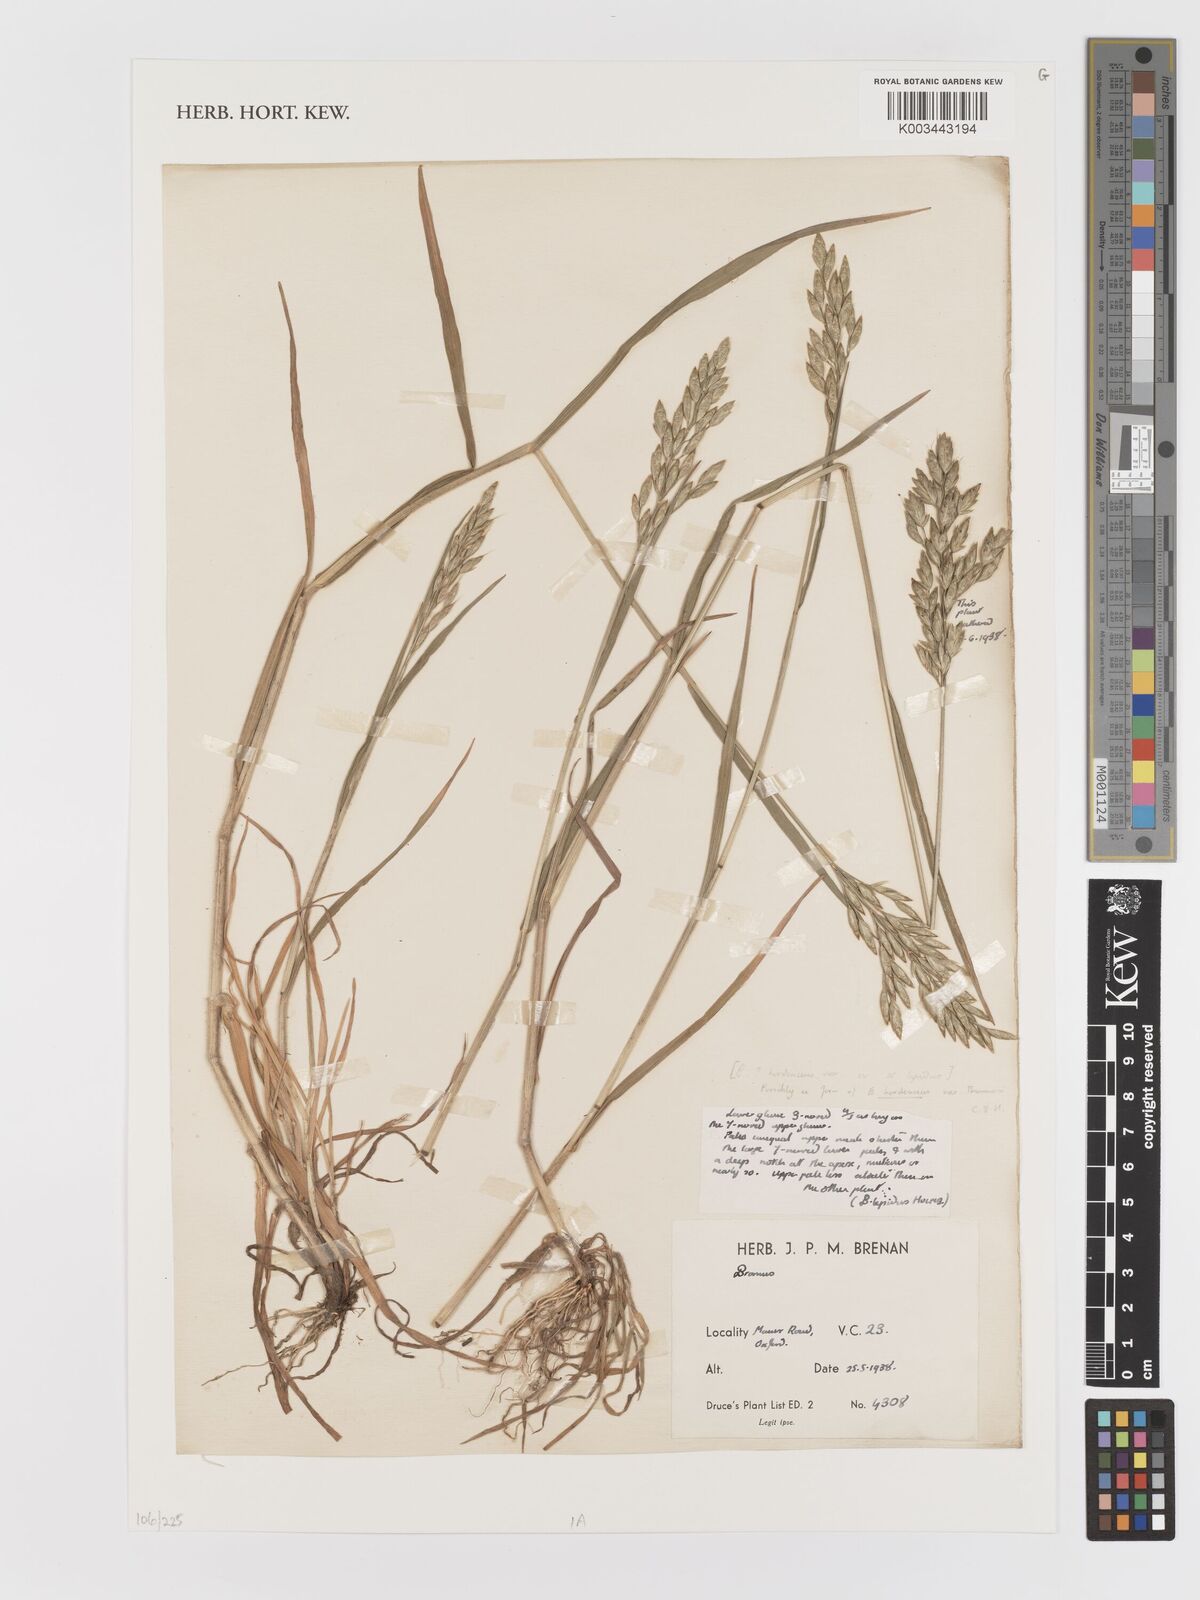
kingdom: Plantae
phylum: Tracheophyta
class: Liliopsida
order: Poales
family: Poaceae
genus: Bromus
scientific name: Bromus
